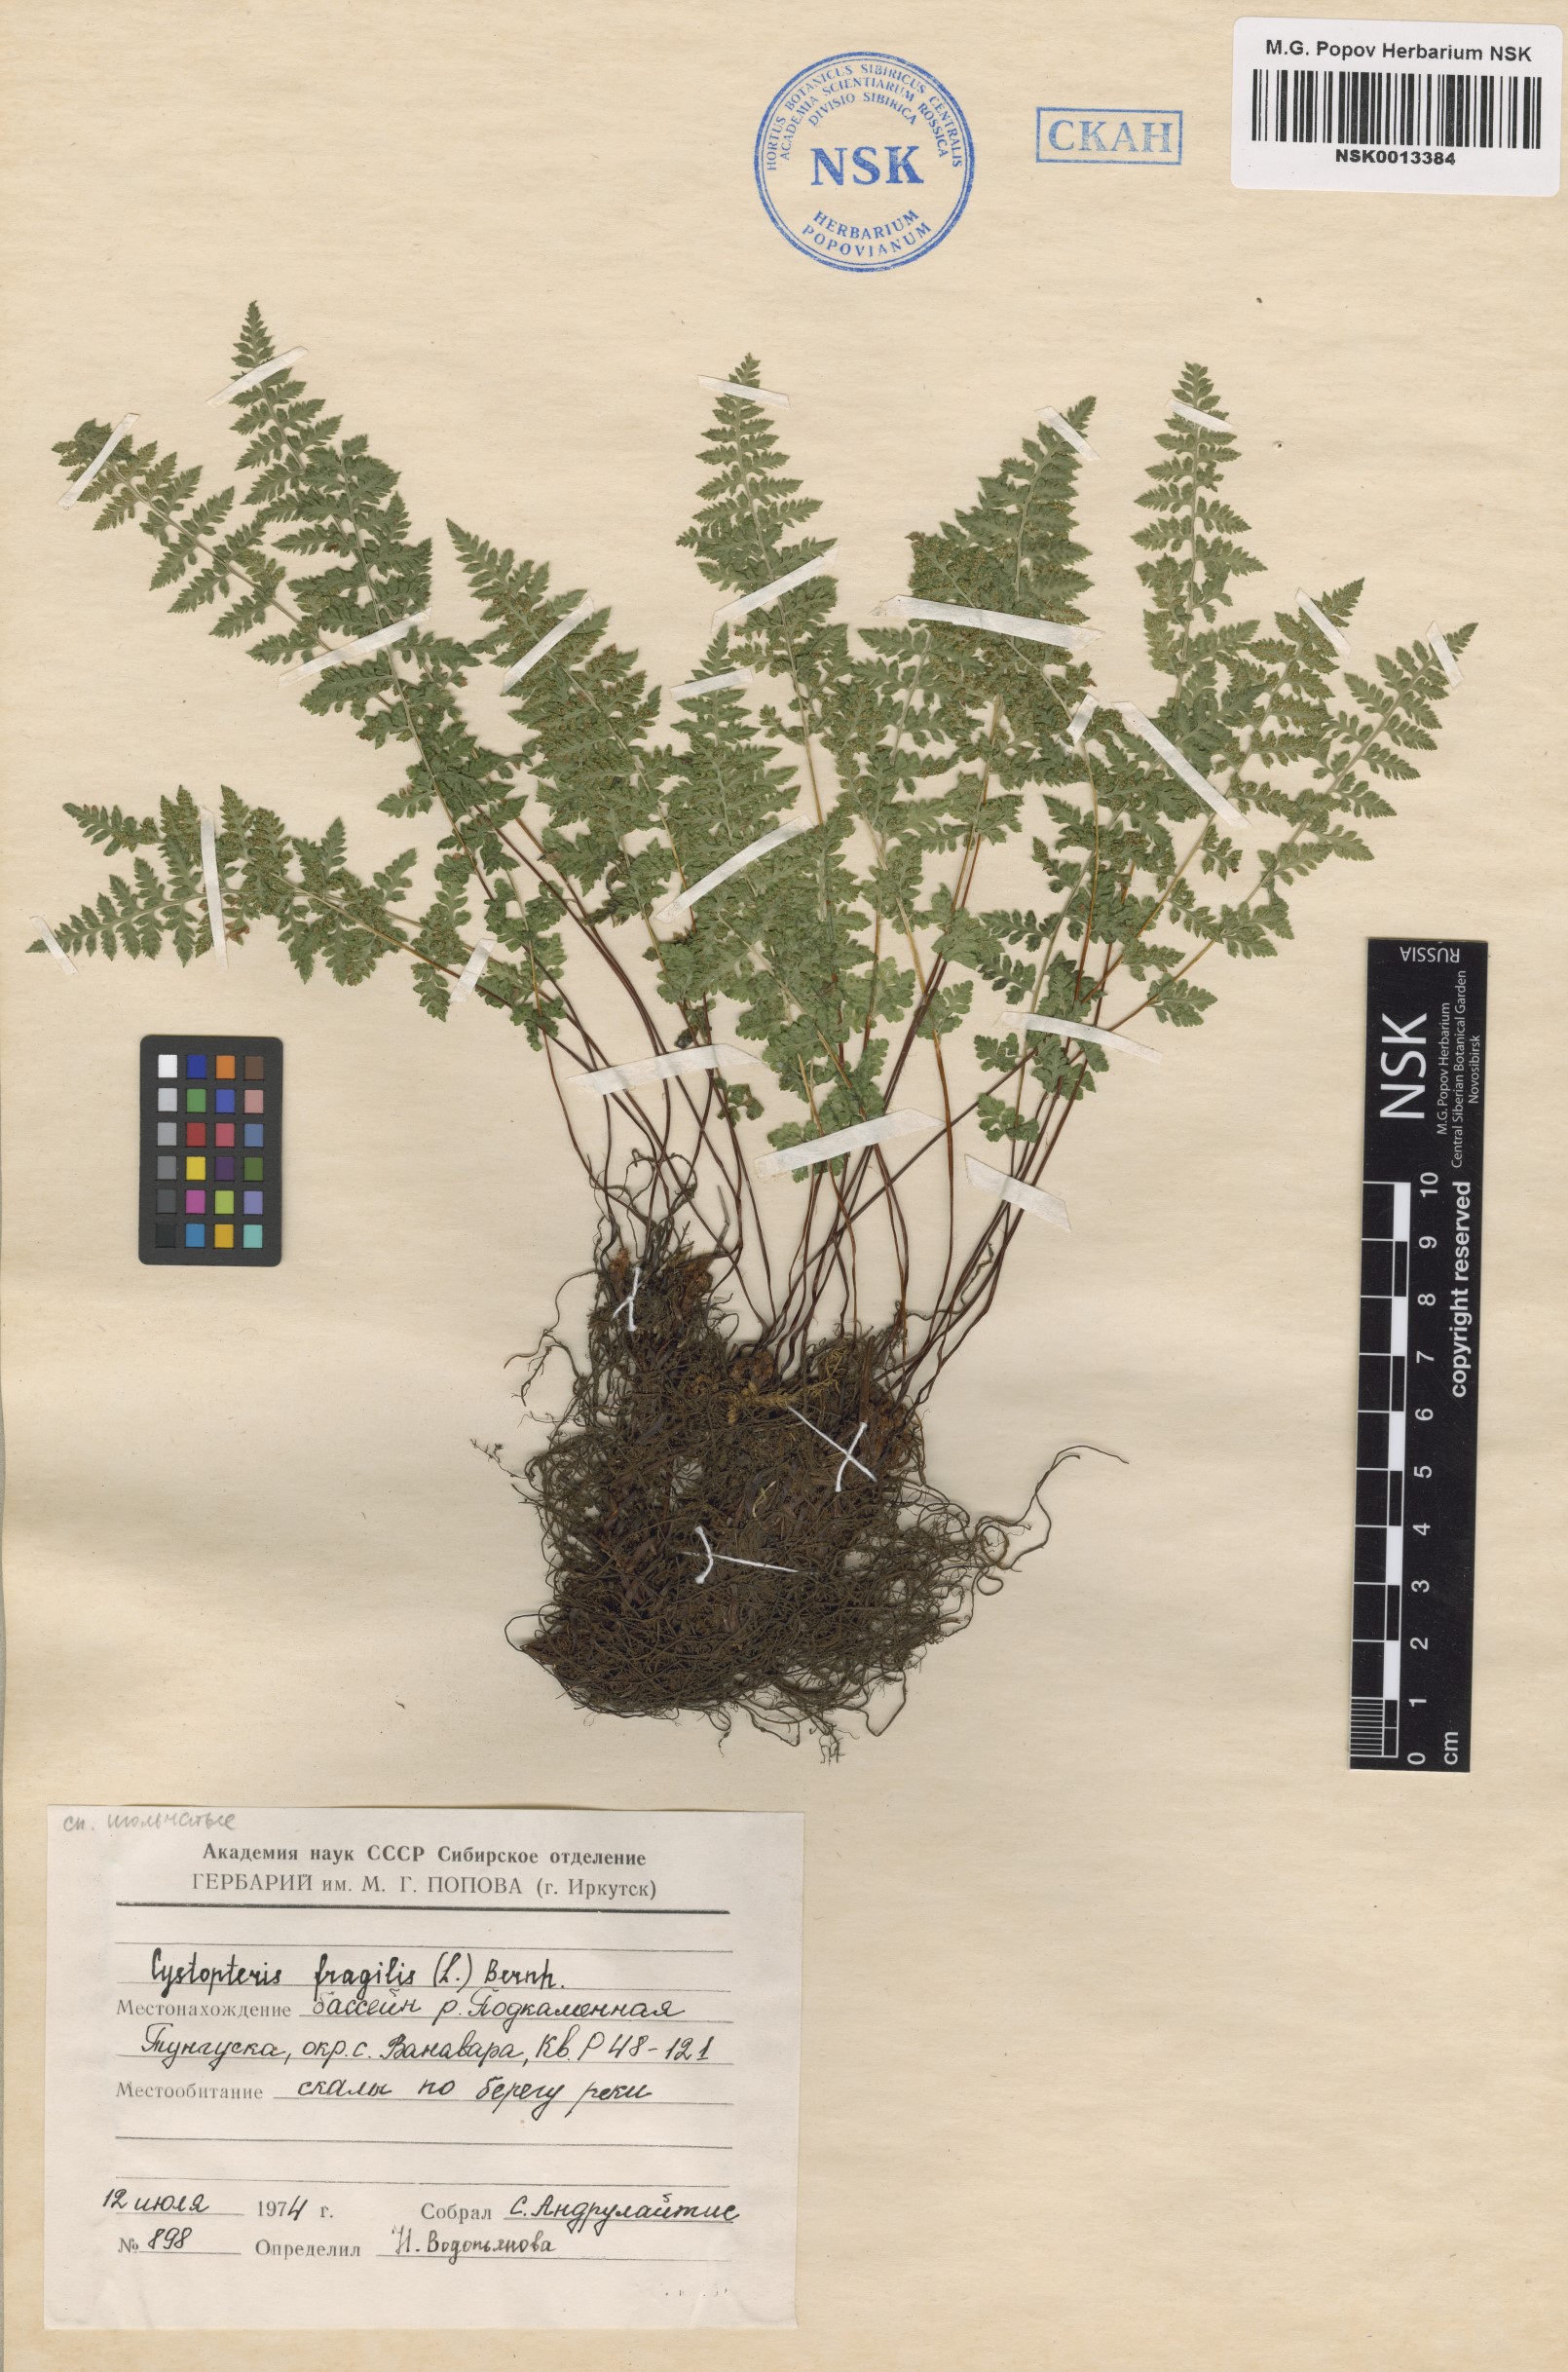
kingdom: Plantae
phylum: Tracheophyta
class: Polypodiopsida
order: Polypodiales
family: Cystopteridaceae
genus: Cystopteris
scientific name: Cystopteris fragilis
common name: Brittle bladder fern
